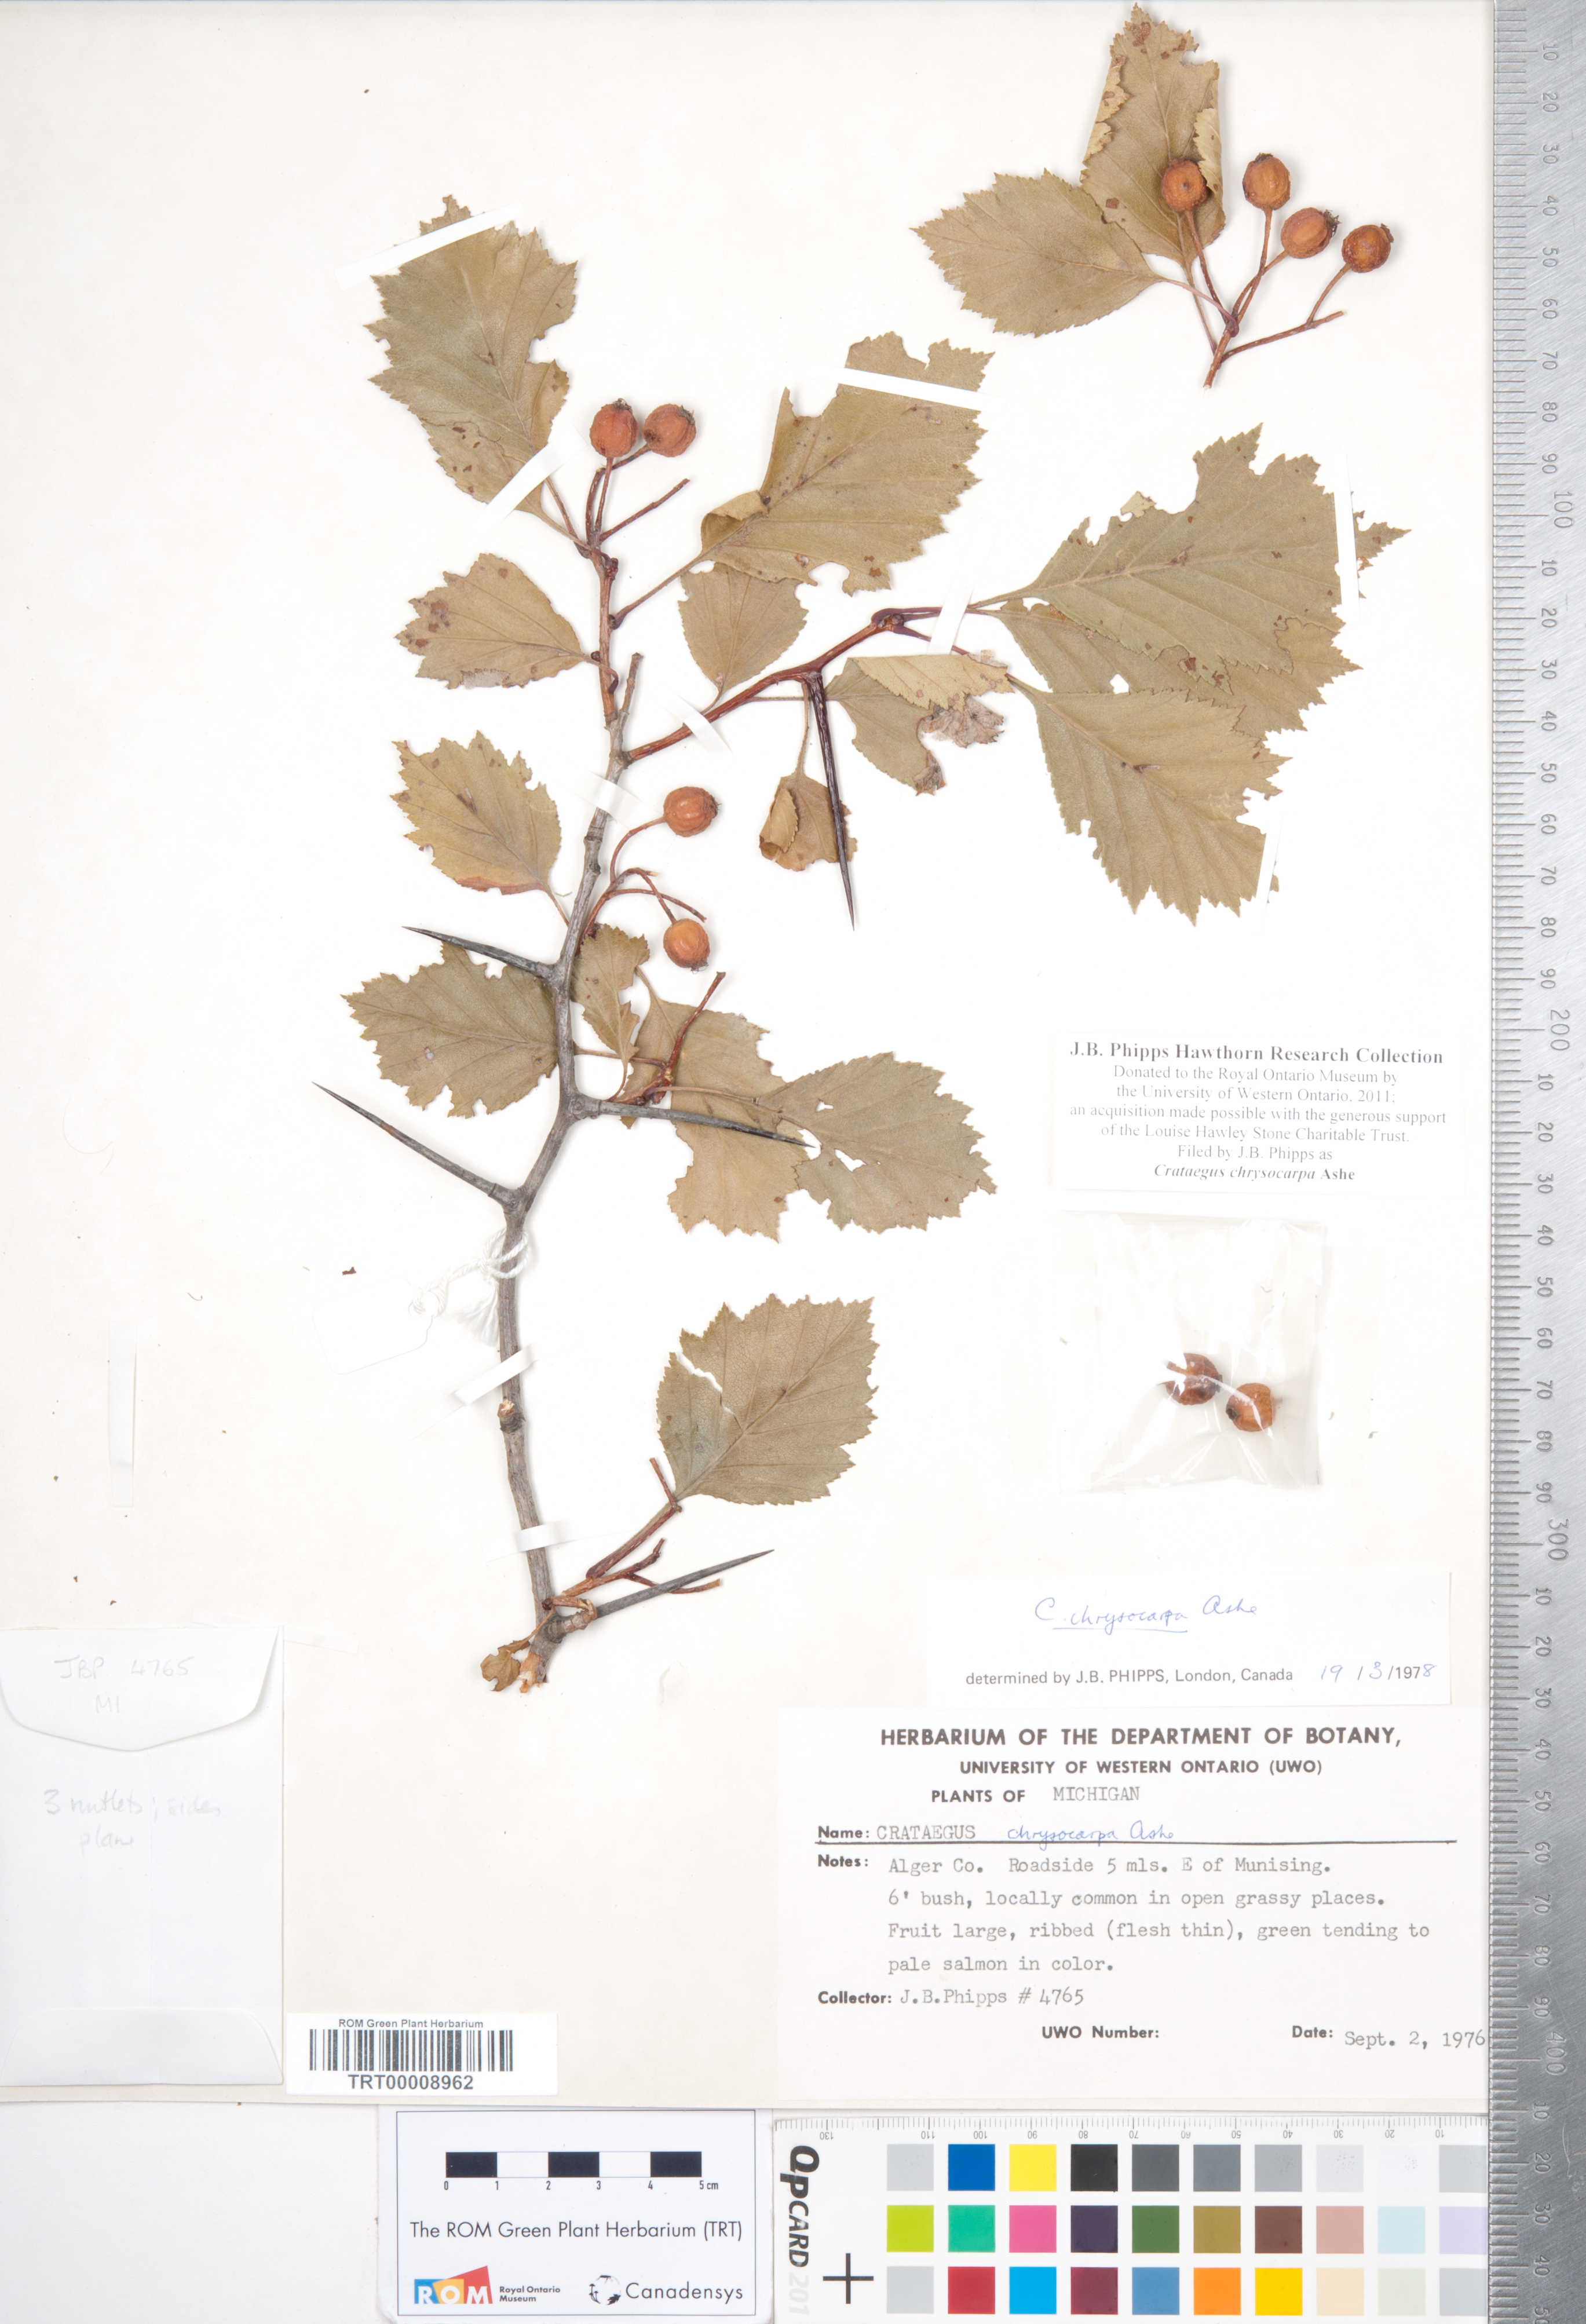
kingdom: Plantae
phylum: Tracheophyta
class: Magnoliopsida
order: Rosales
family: Rosaceae
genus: Crataegus
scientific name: Crataegus chrysocarpa
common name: Fire-berry hawthorn
